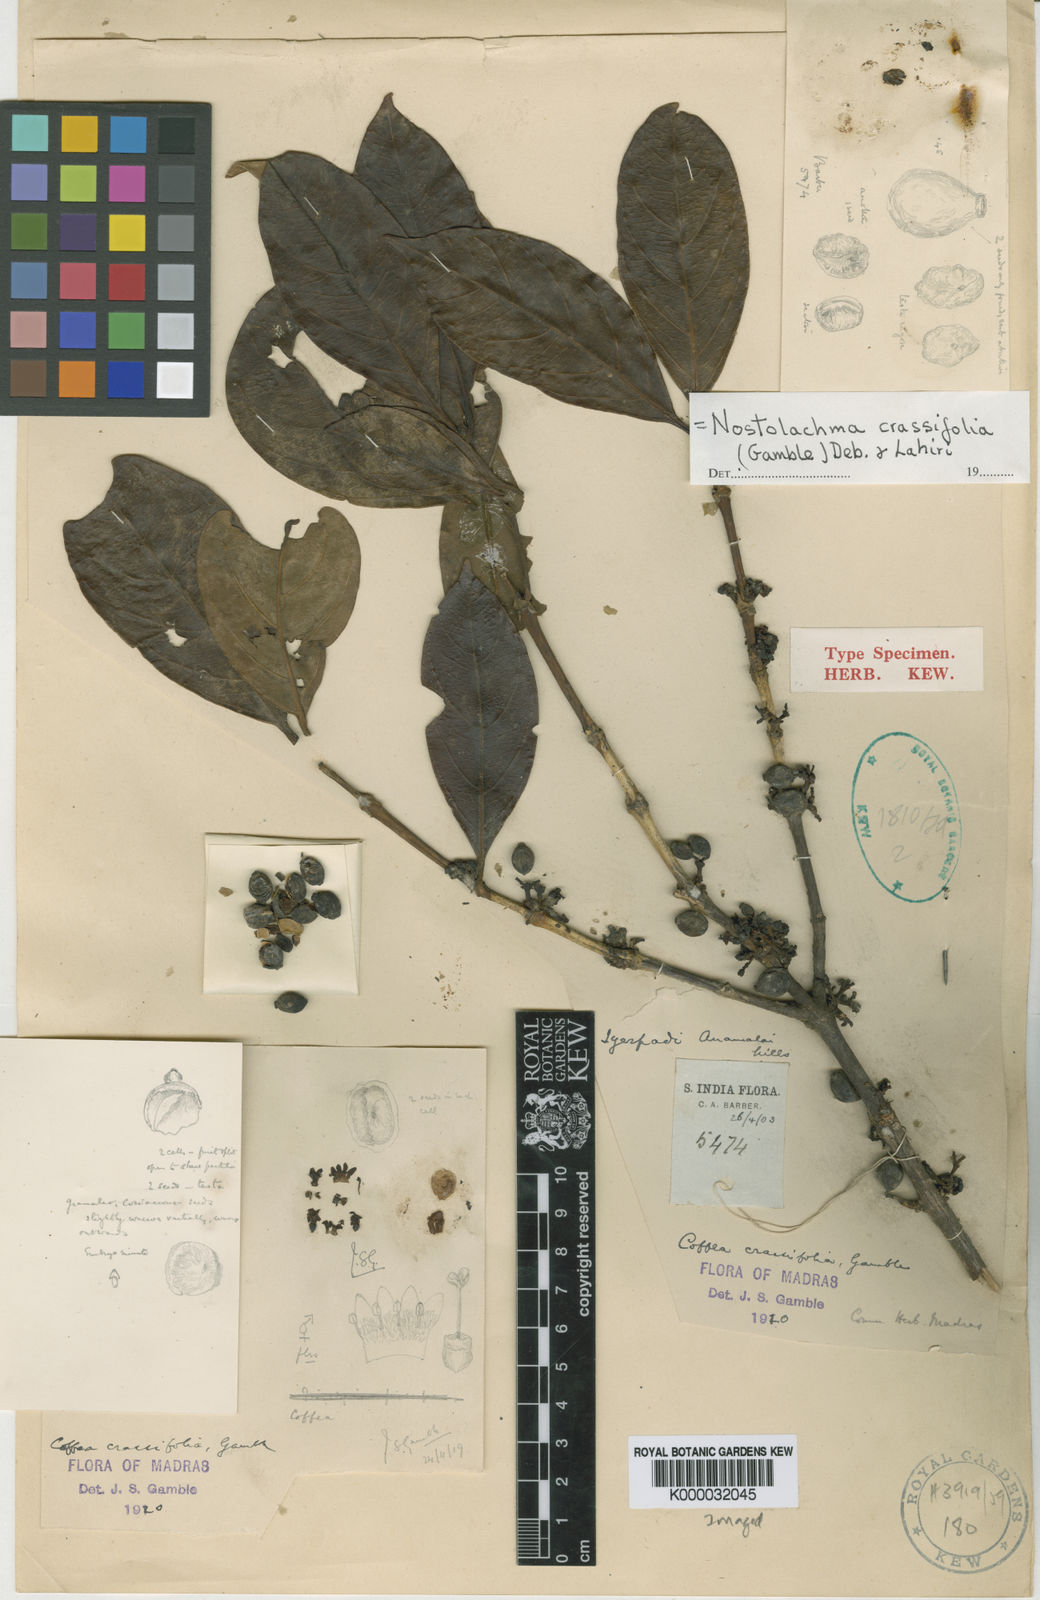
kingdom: Plantae
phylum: Tracheophyta
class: Magnoliopsida
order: Gentianales
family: Rubiaceae
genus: Nostolachma
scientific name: Nostolachma crassifolia
